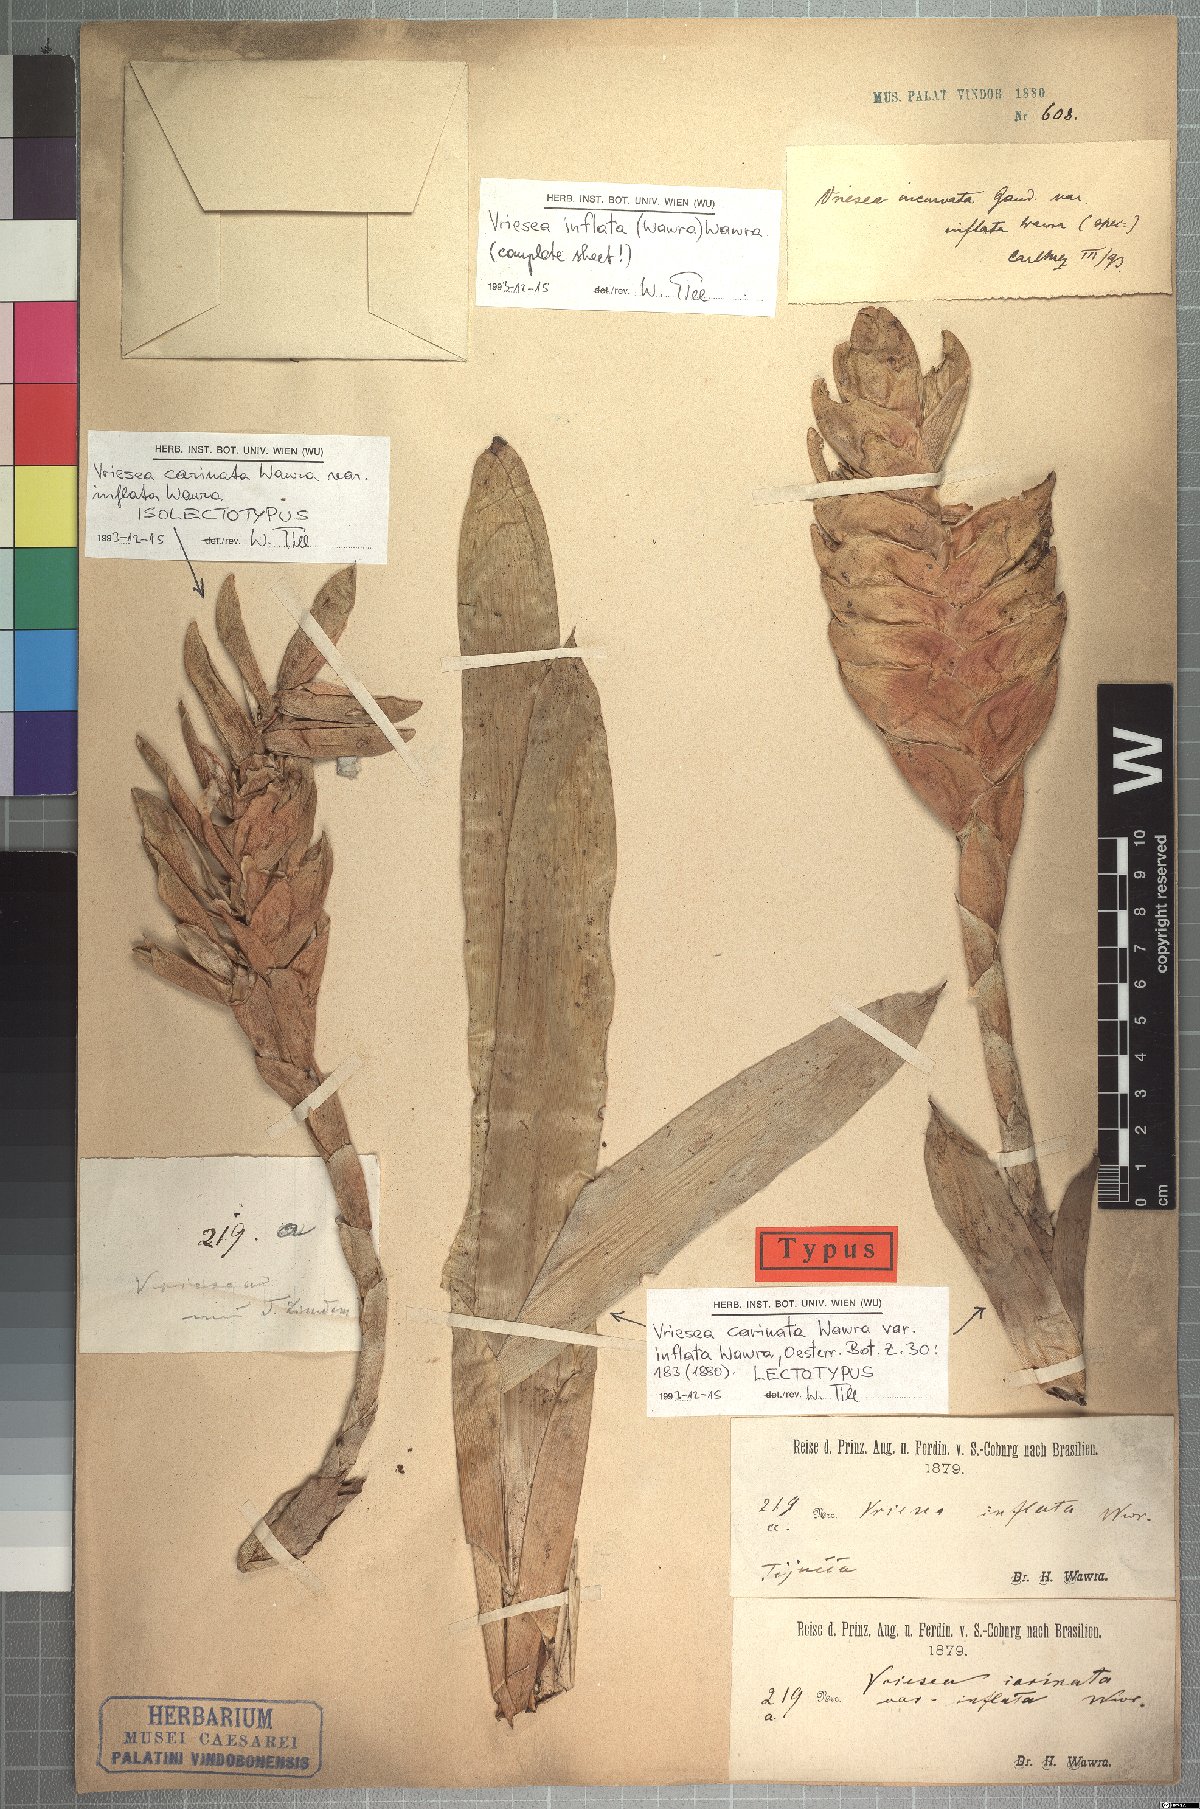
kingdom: Plantae
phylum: Tracheophyta
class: Liliopsida
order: Poales
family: Bromeliaceae
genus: Vriesea
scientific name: Vriesea inflata
